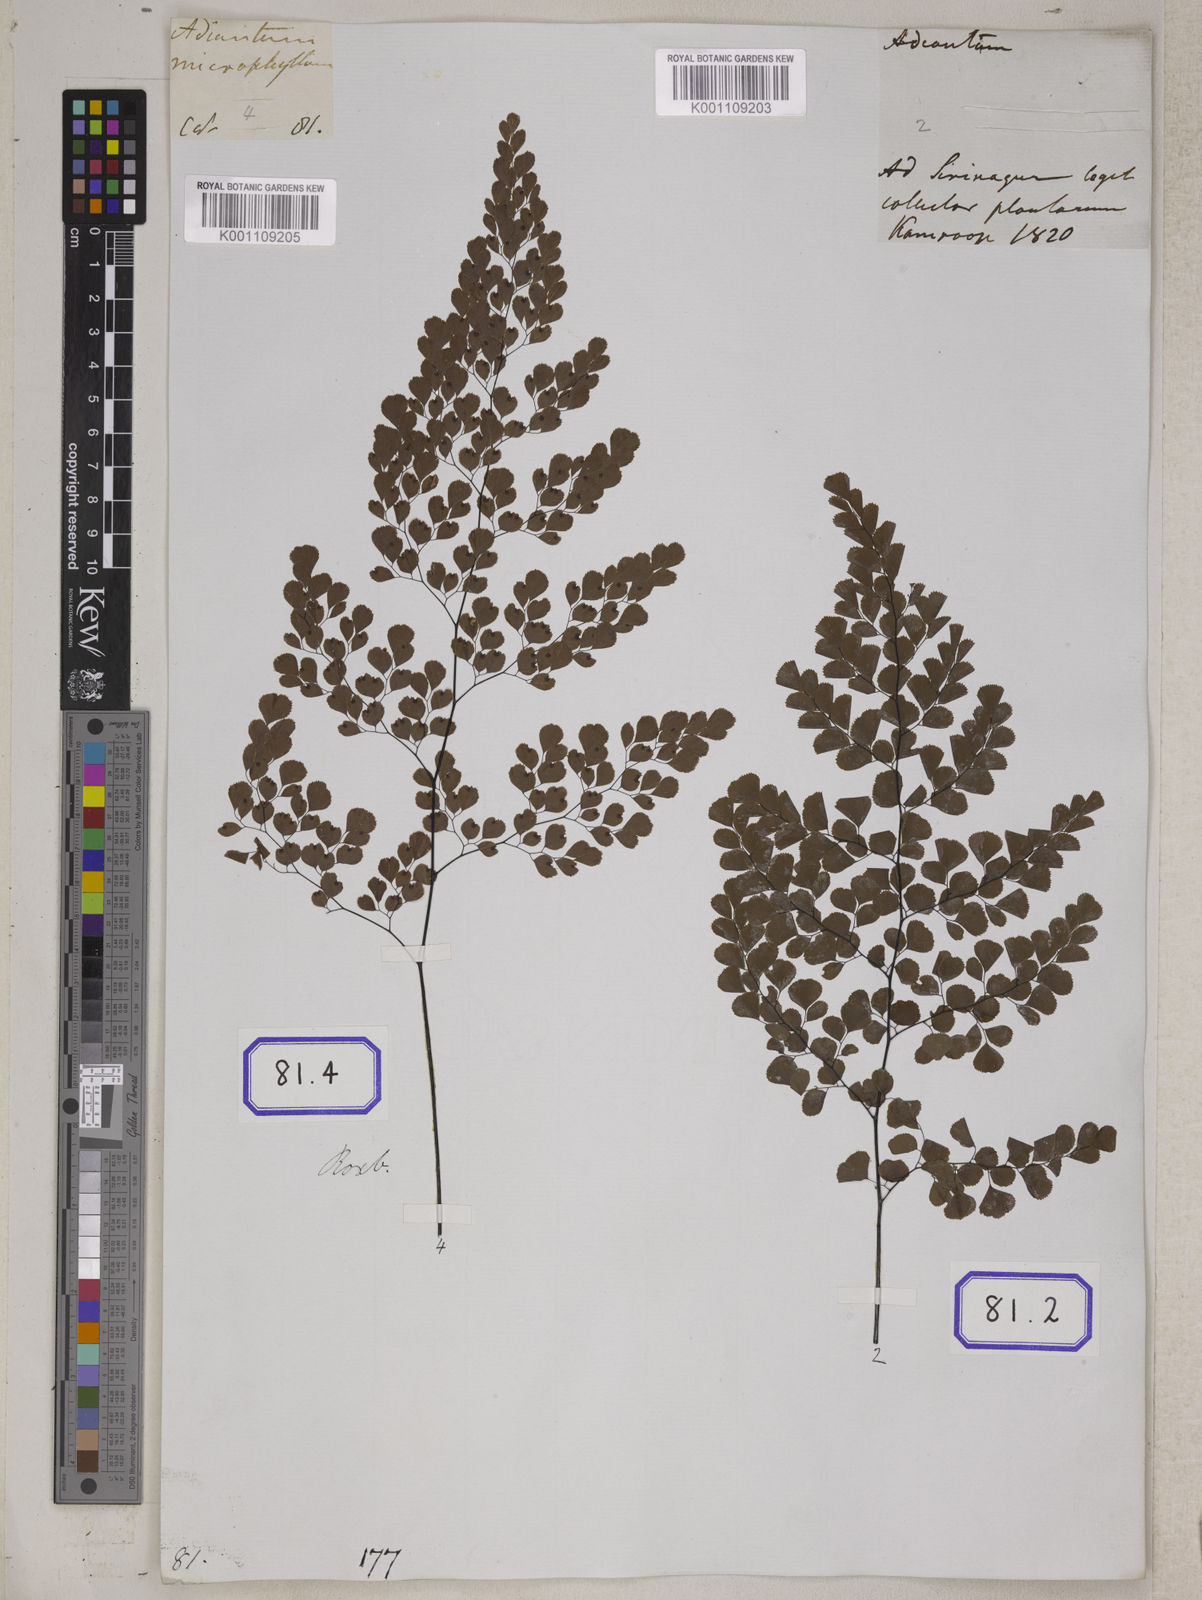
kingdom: Plantae
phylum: Tracheophyta
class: Polypodiopsida
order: Polypodiales
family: Pteridaceae
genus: Adiantum
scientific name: Adiantum venustum
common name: Evergreen maidenhair
